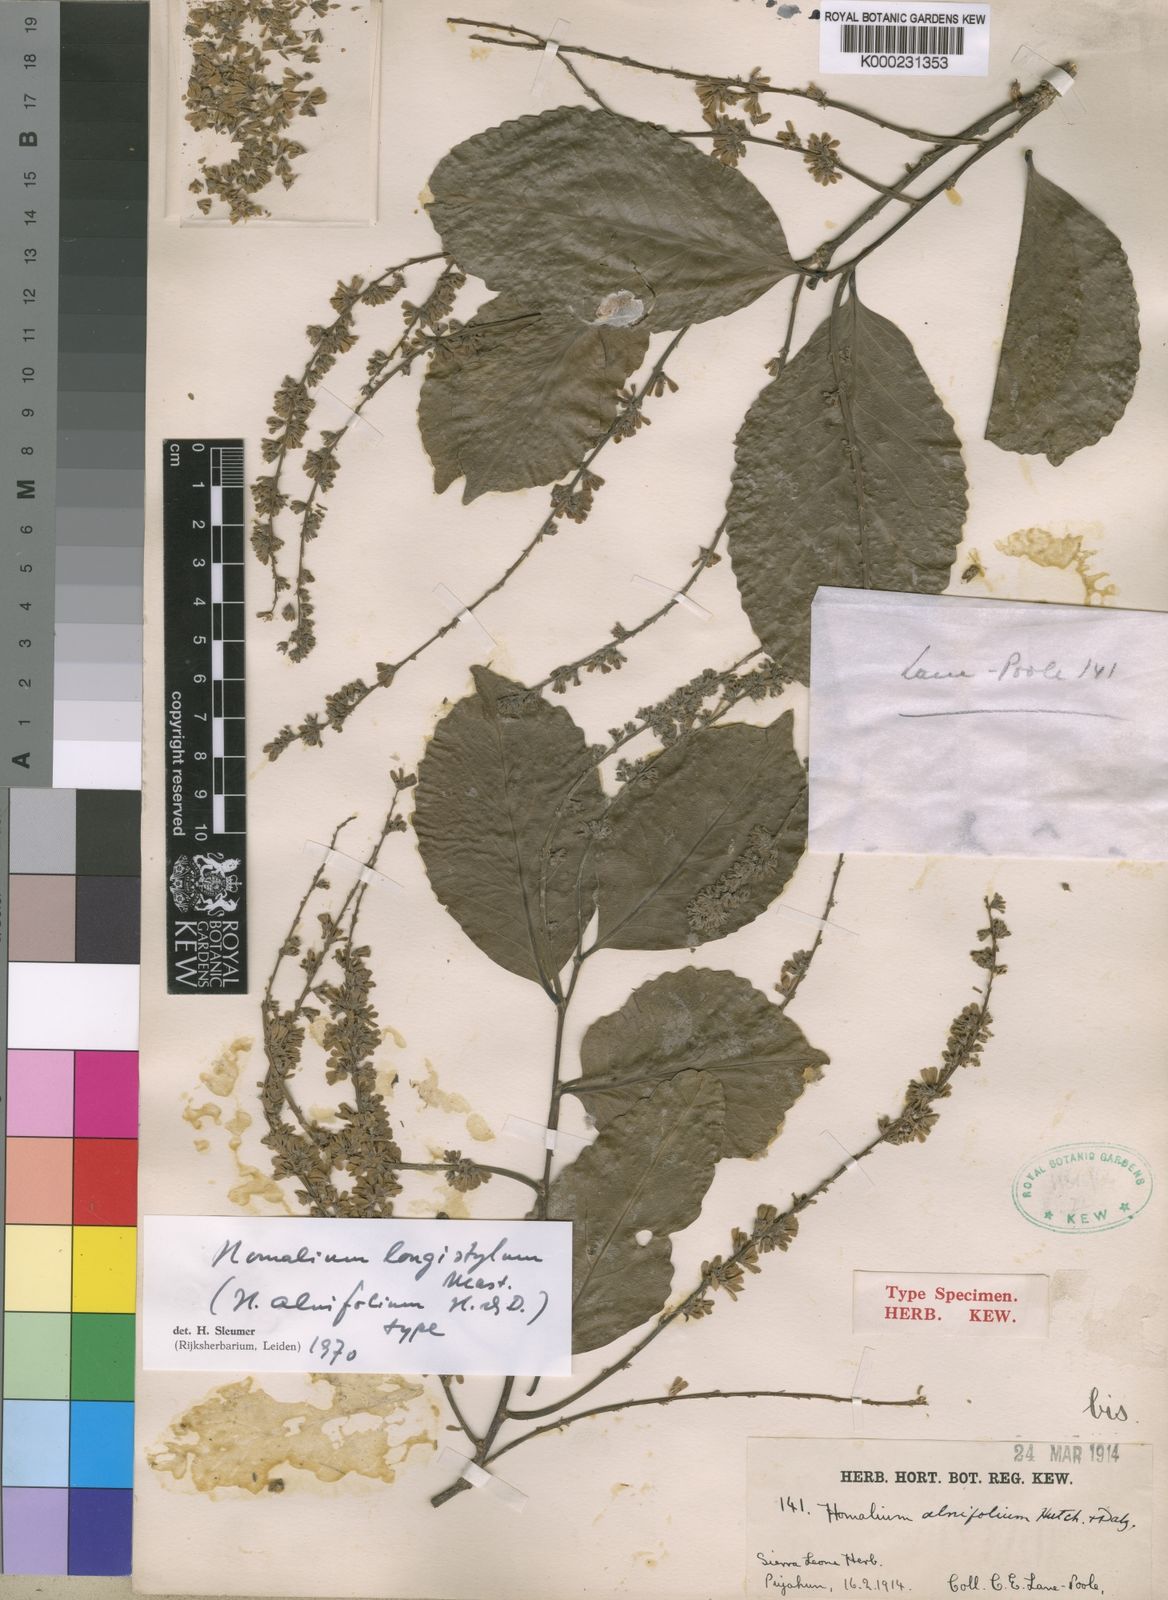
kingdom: Plantae
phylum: Tracheophyta
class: Magnoliopsida
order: Malpighiales
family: Salicaceae
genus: Homalium
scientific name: Homalium longistylum
